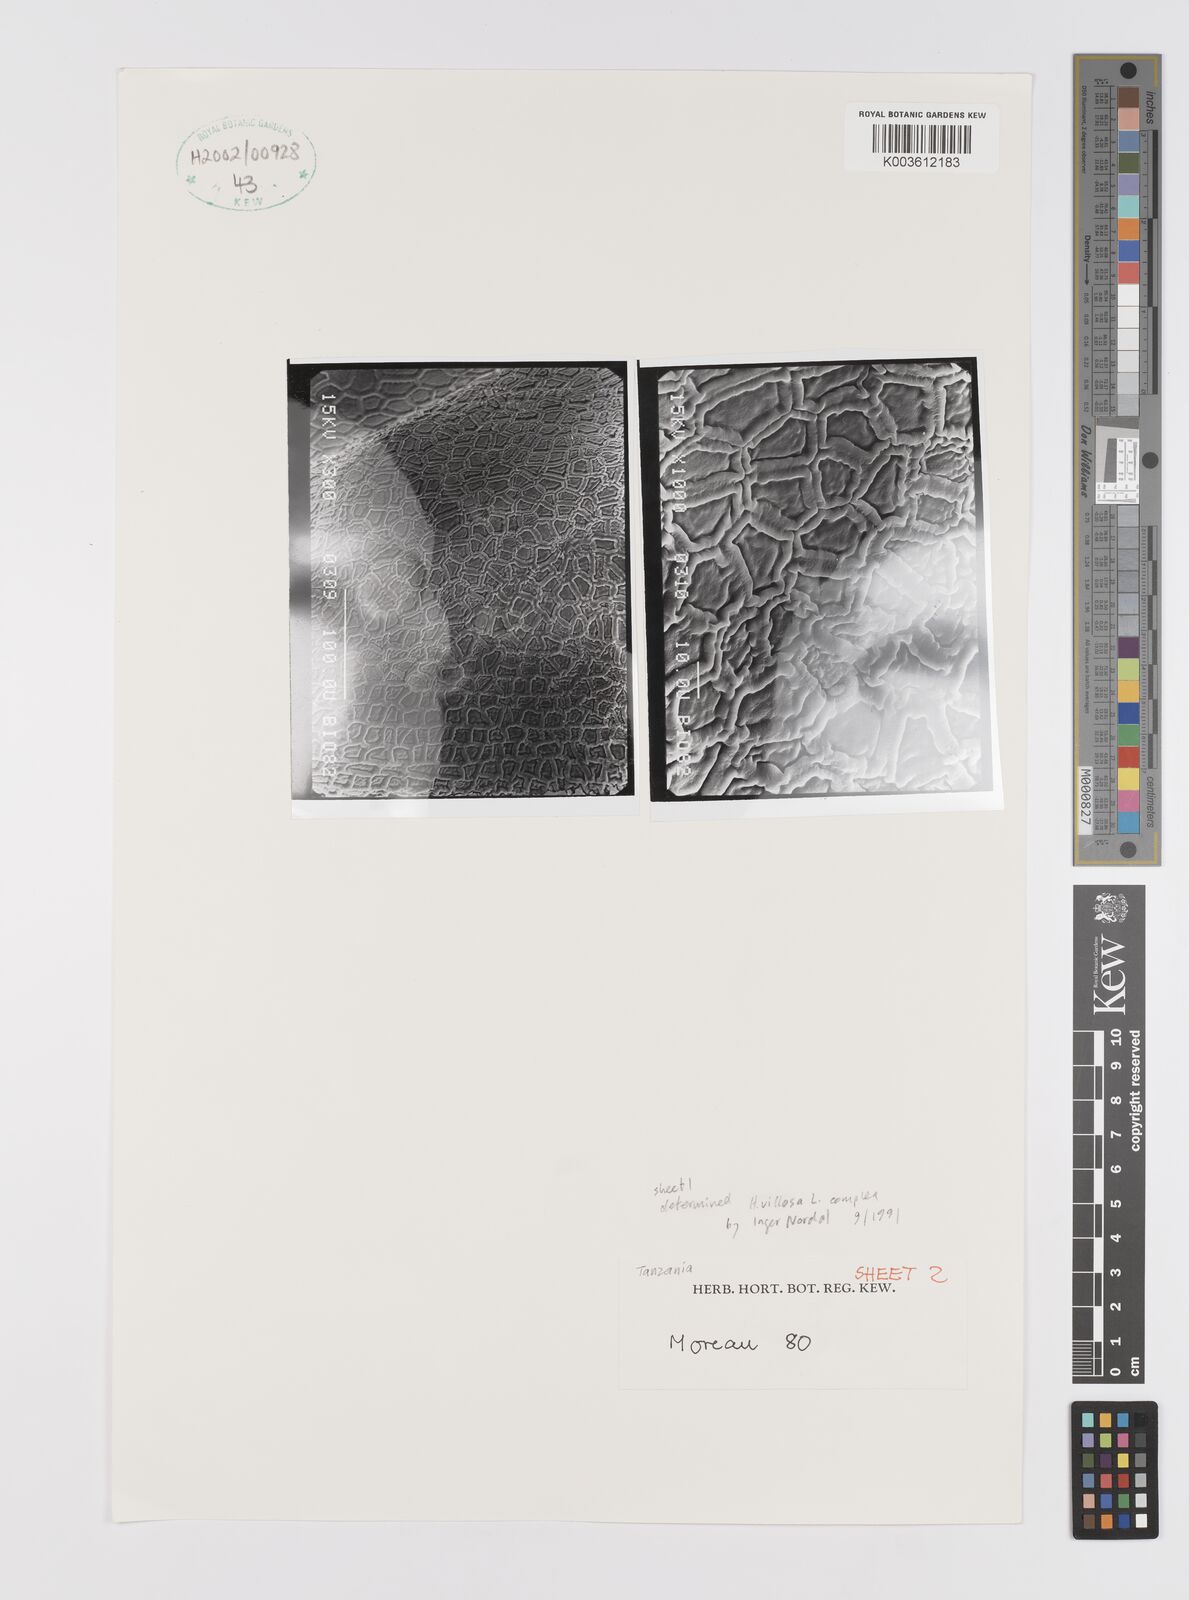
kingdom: Plantae
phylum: Tracheophyta
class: Liliopsida
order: Asparagales
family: Hypoxidaceae
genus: Hypoxis
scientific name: Hypoxis schimperi
